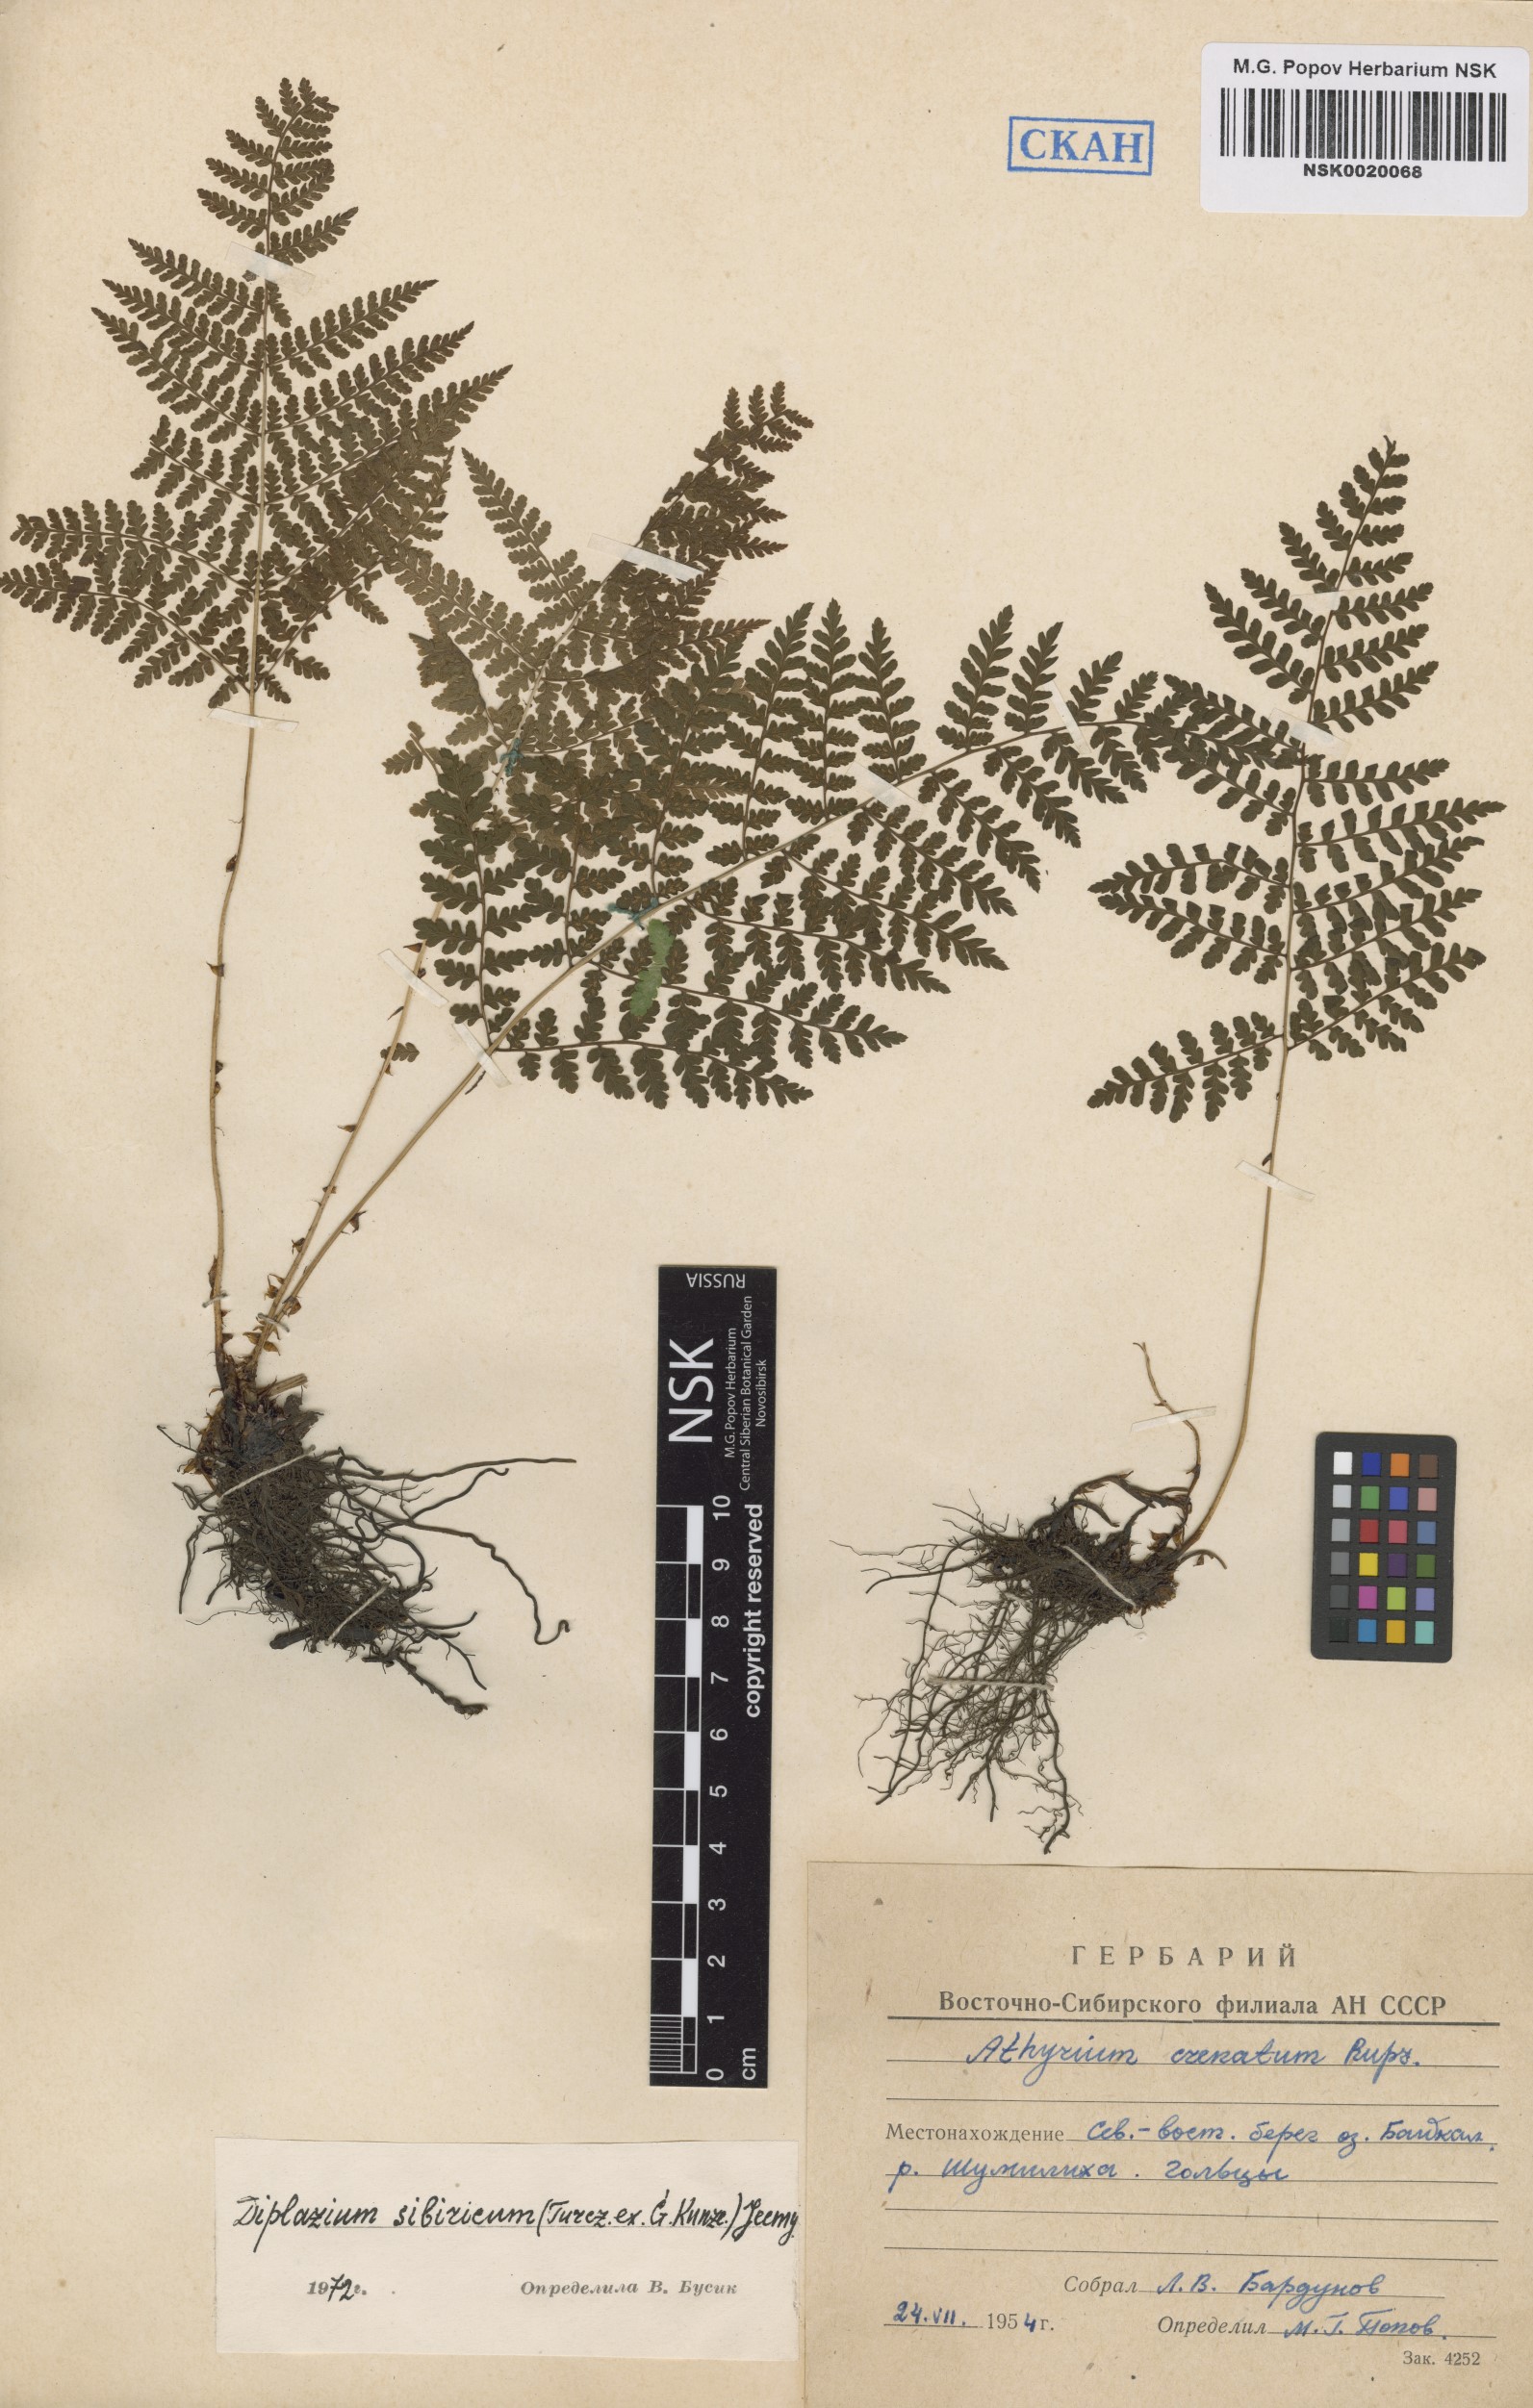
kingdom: Plantae
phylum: Tracheophyta
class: Polypodiopsida
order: Polypodiales
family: Athyriaceae
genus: Diplazium
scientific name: Diplazium sibiricum
